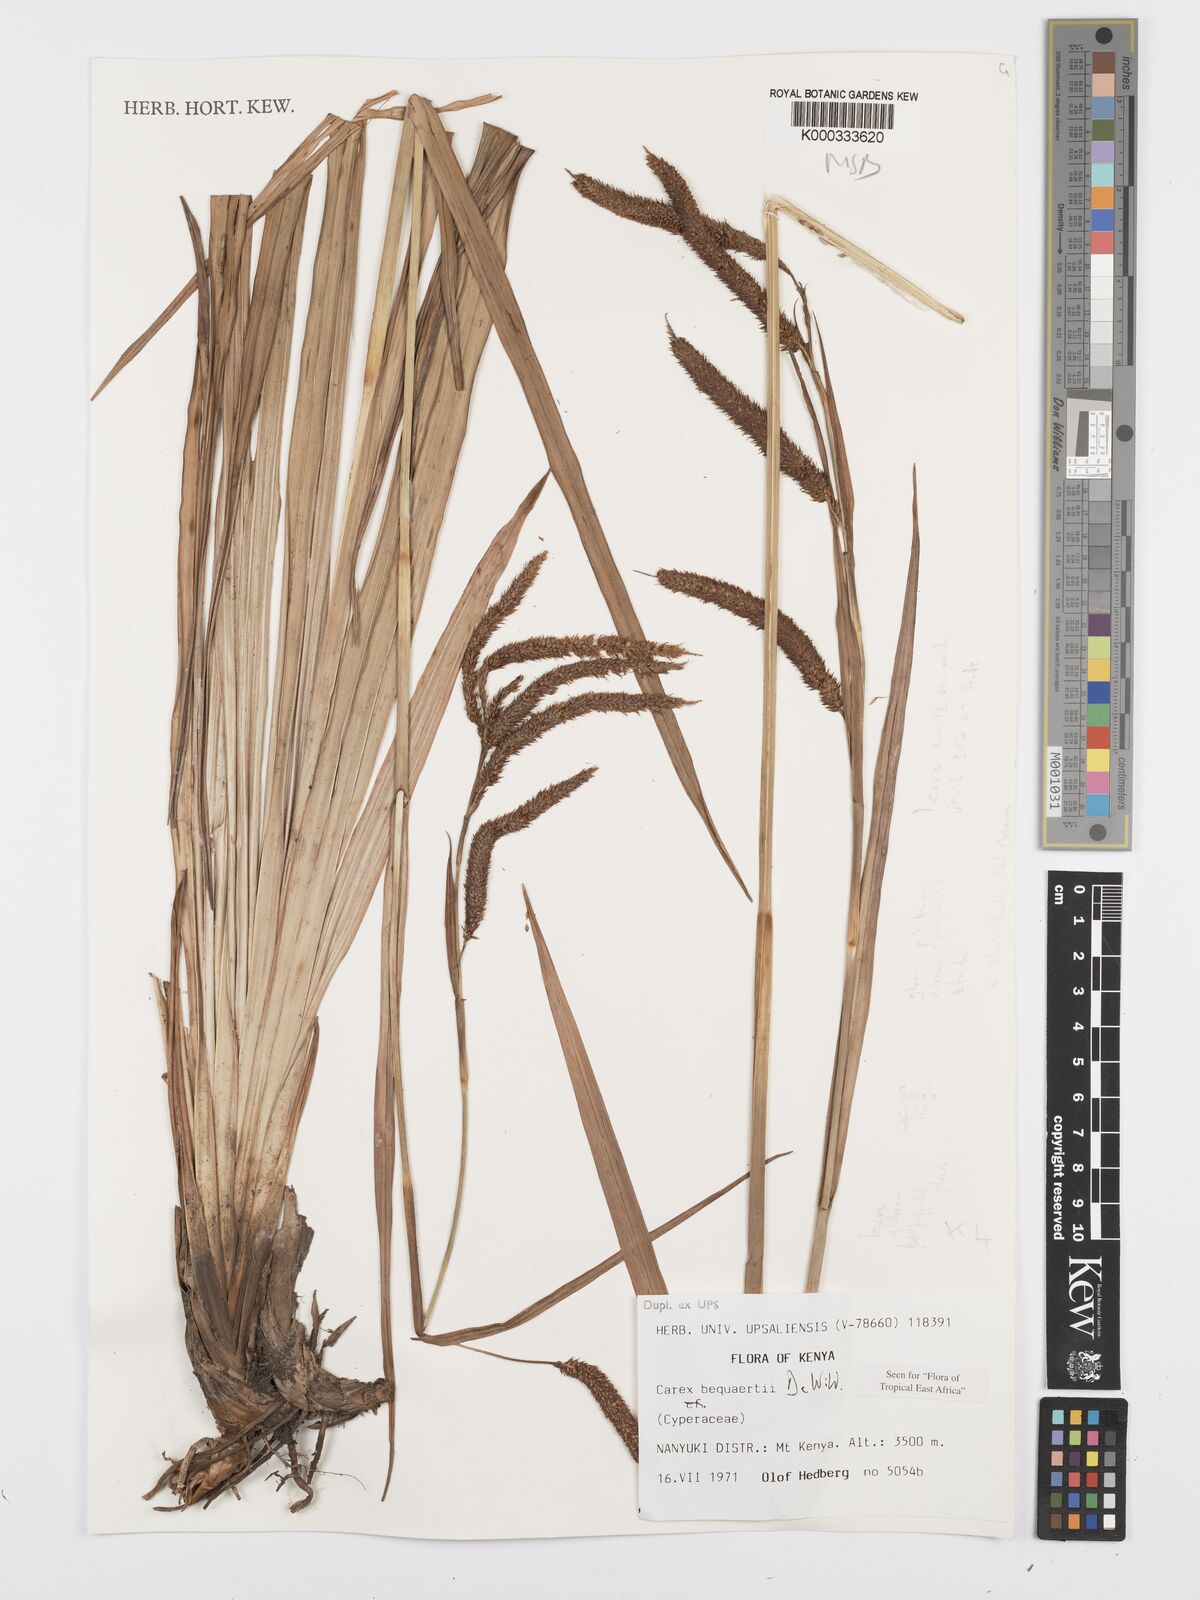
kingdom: Plantae
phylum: Tracheophyta
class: Liliopsida
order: Poales
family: Cyperaceae
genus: Carex
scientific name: Carex bequaertii
